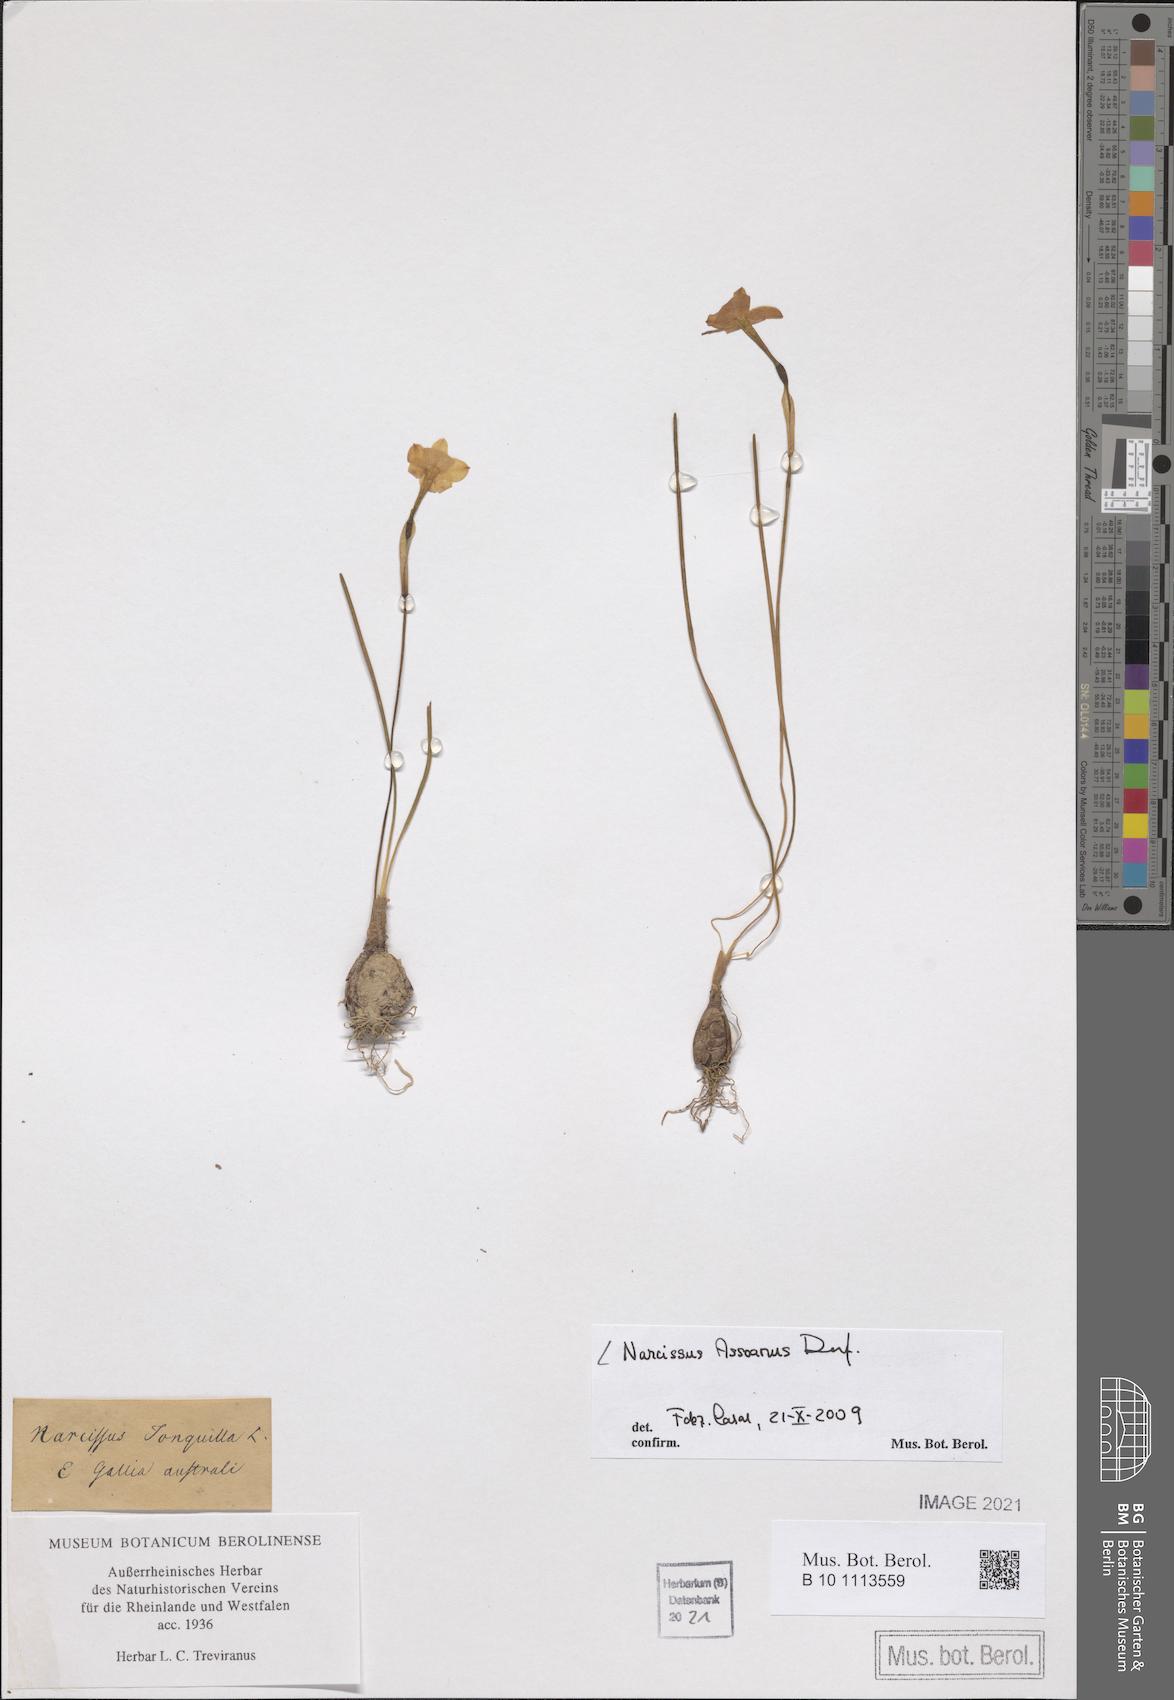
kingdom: Plantae
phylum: Tracheophyta
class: Liliopsida
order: Asparagales
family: Amaryllidaceae
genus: Narcissus
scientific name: Narcissus assoanus
